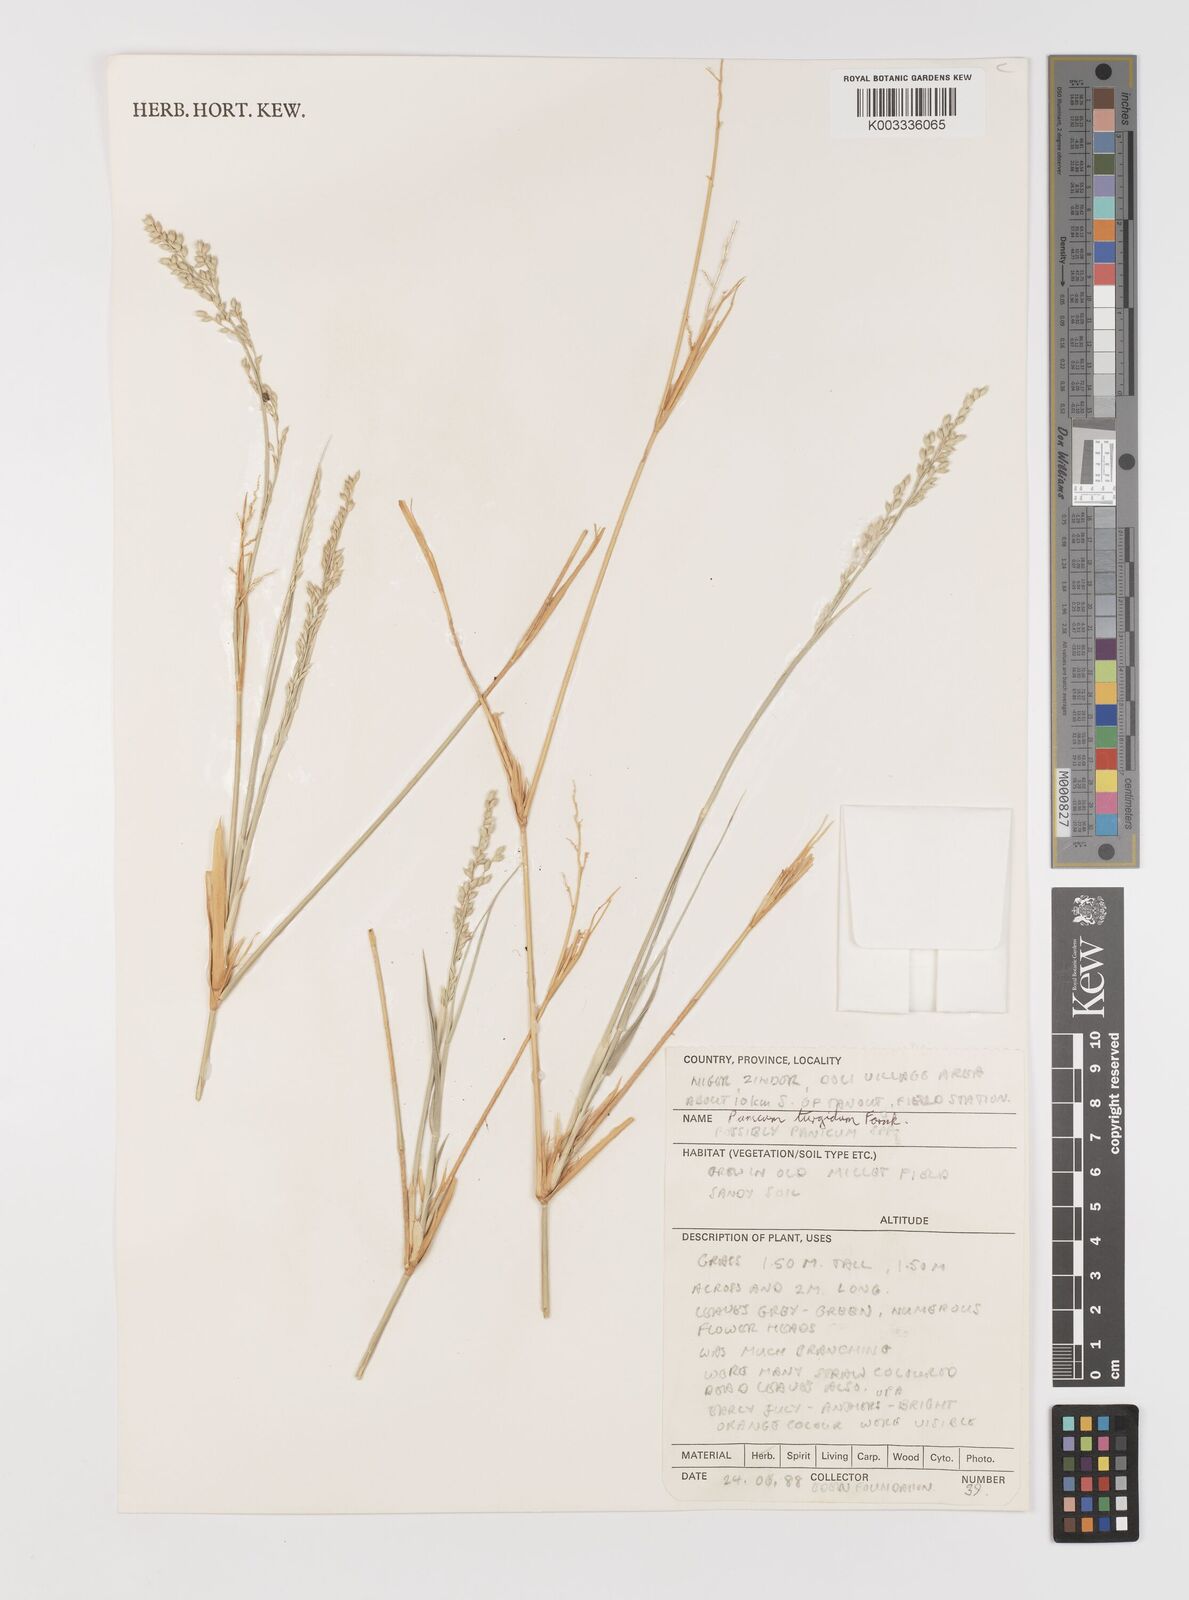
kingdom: Plantae
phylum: Tracheophyta
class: Liliopsida
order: Poales
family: Poaceae
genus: Panicum
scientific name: Panicum turgidum
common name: Desert grass
